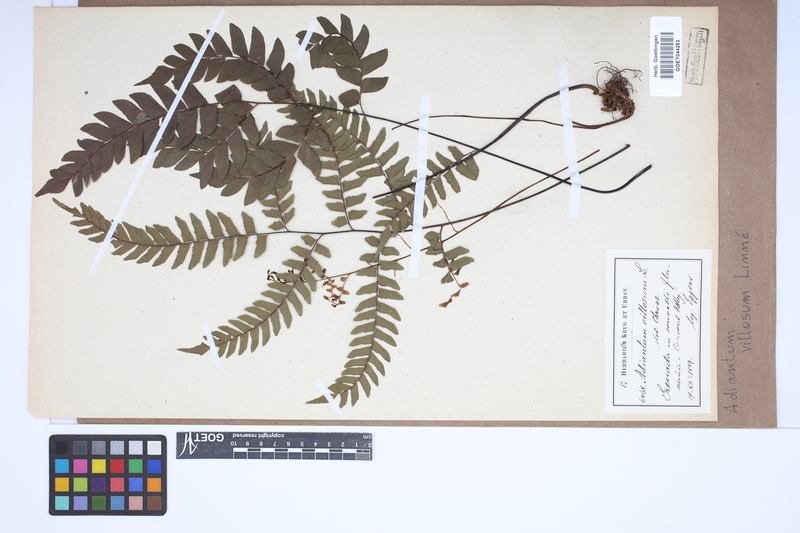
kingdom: Plantae
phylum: Tracheophyta
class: Polypodiopsida
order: Polypodiales
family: Pteridaceae
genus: Adiantum
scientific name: Adiantum villosum
